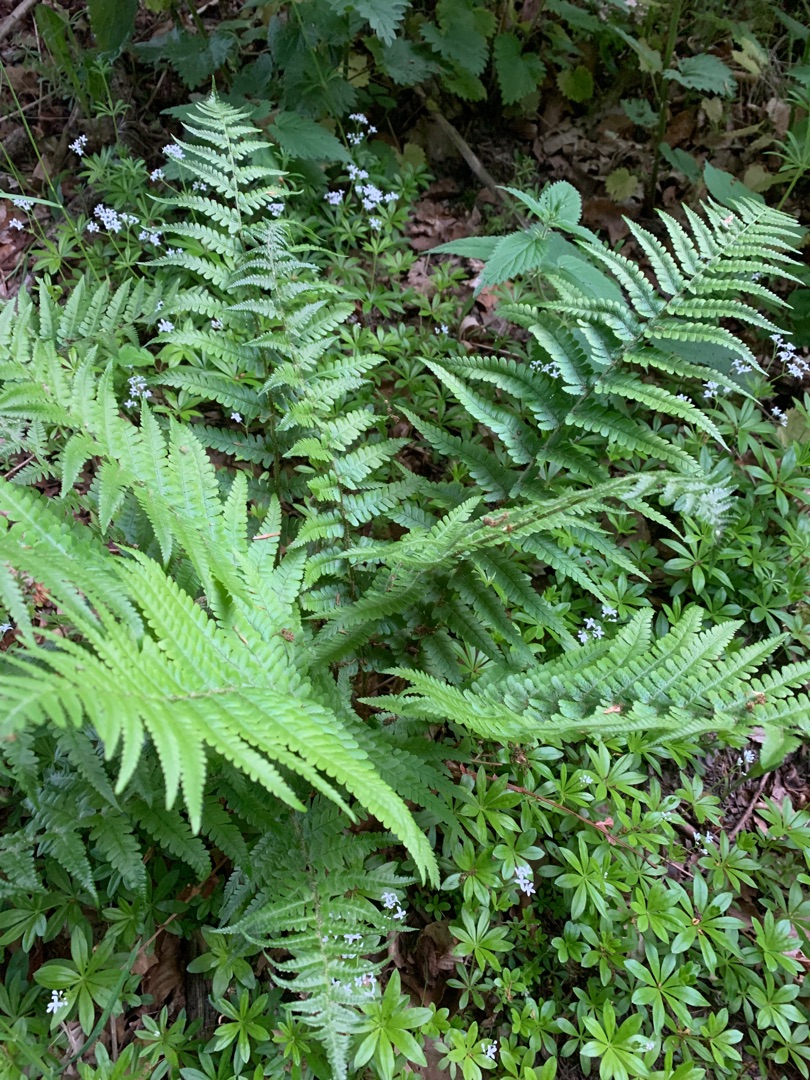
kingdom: Plantae
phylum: Tracheophyta
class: Polypodiopsida
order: Polypodiales
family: Dryopteridaceae
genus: Dryopteris
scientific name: Dryopteris filix-mas
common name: Almindelig mangeløv
